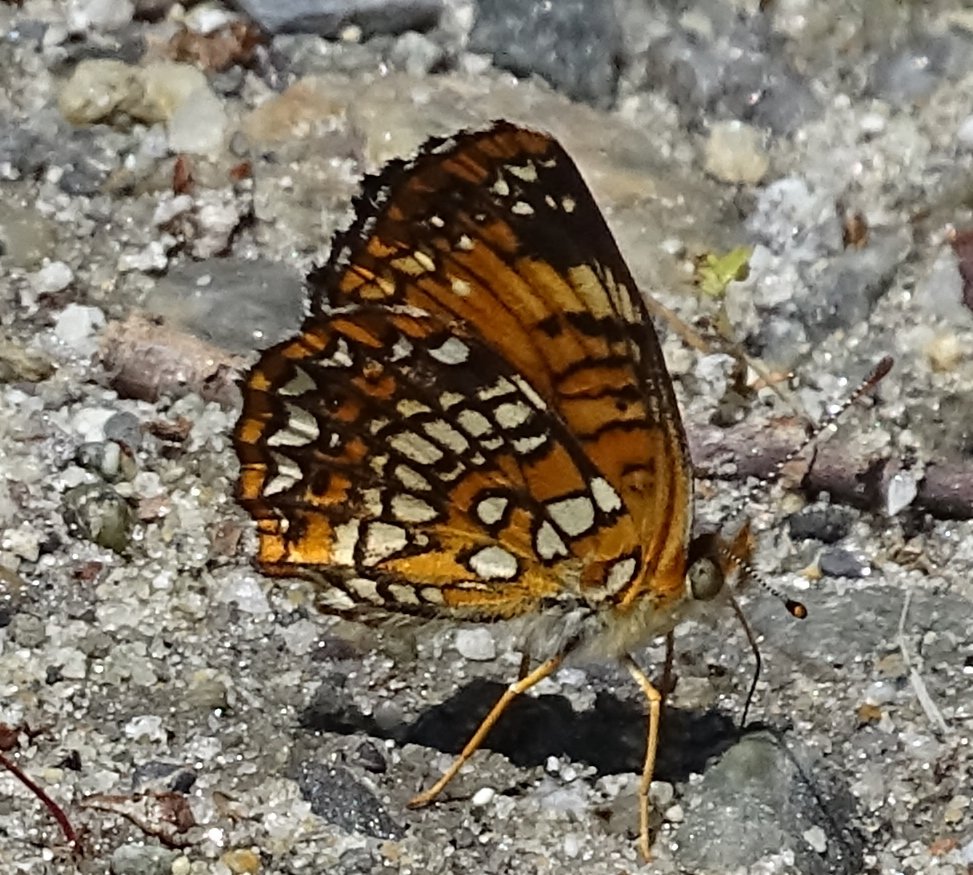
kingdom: Animalia
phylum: Arthropoda
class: Insecta
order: Lepidoptera
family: Nymphalidae
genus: Chlosyne
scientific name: Chlosyne harrisii
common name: Harris's Checkerspot
